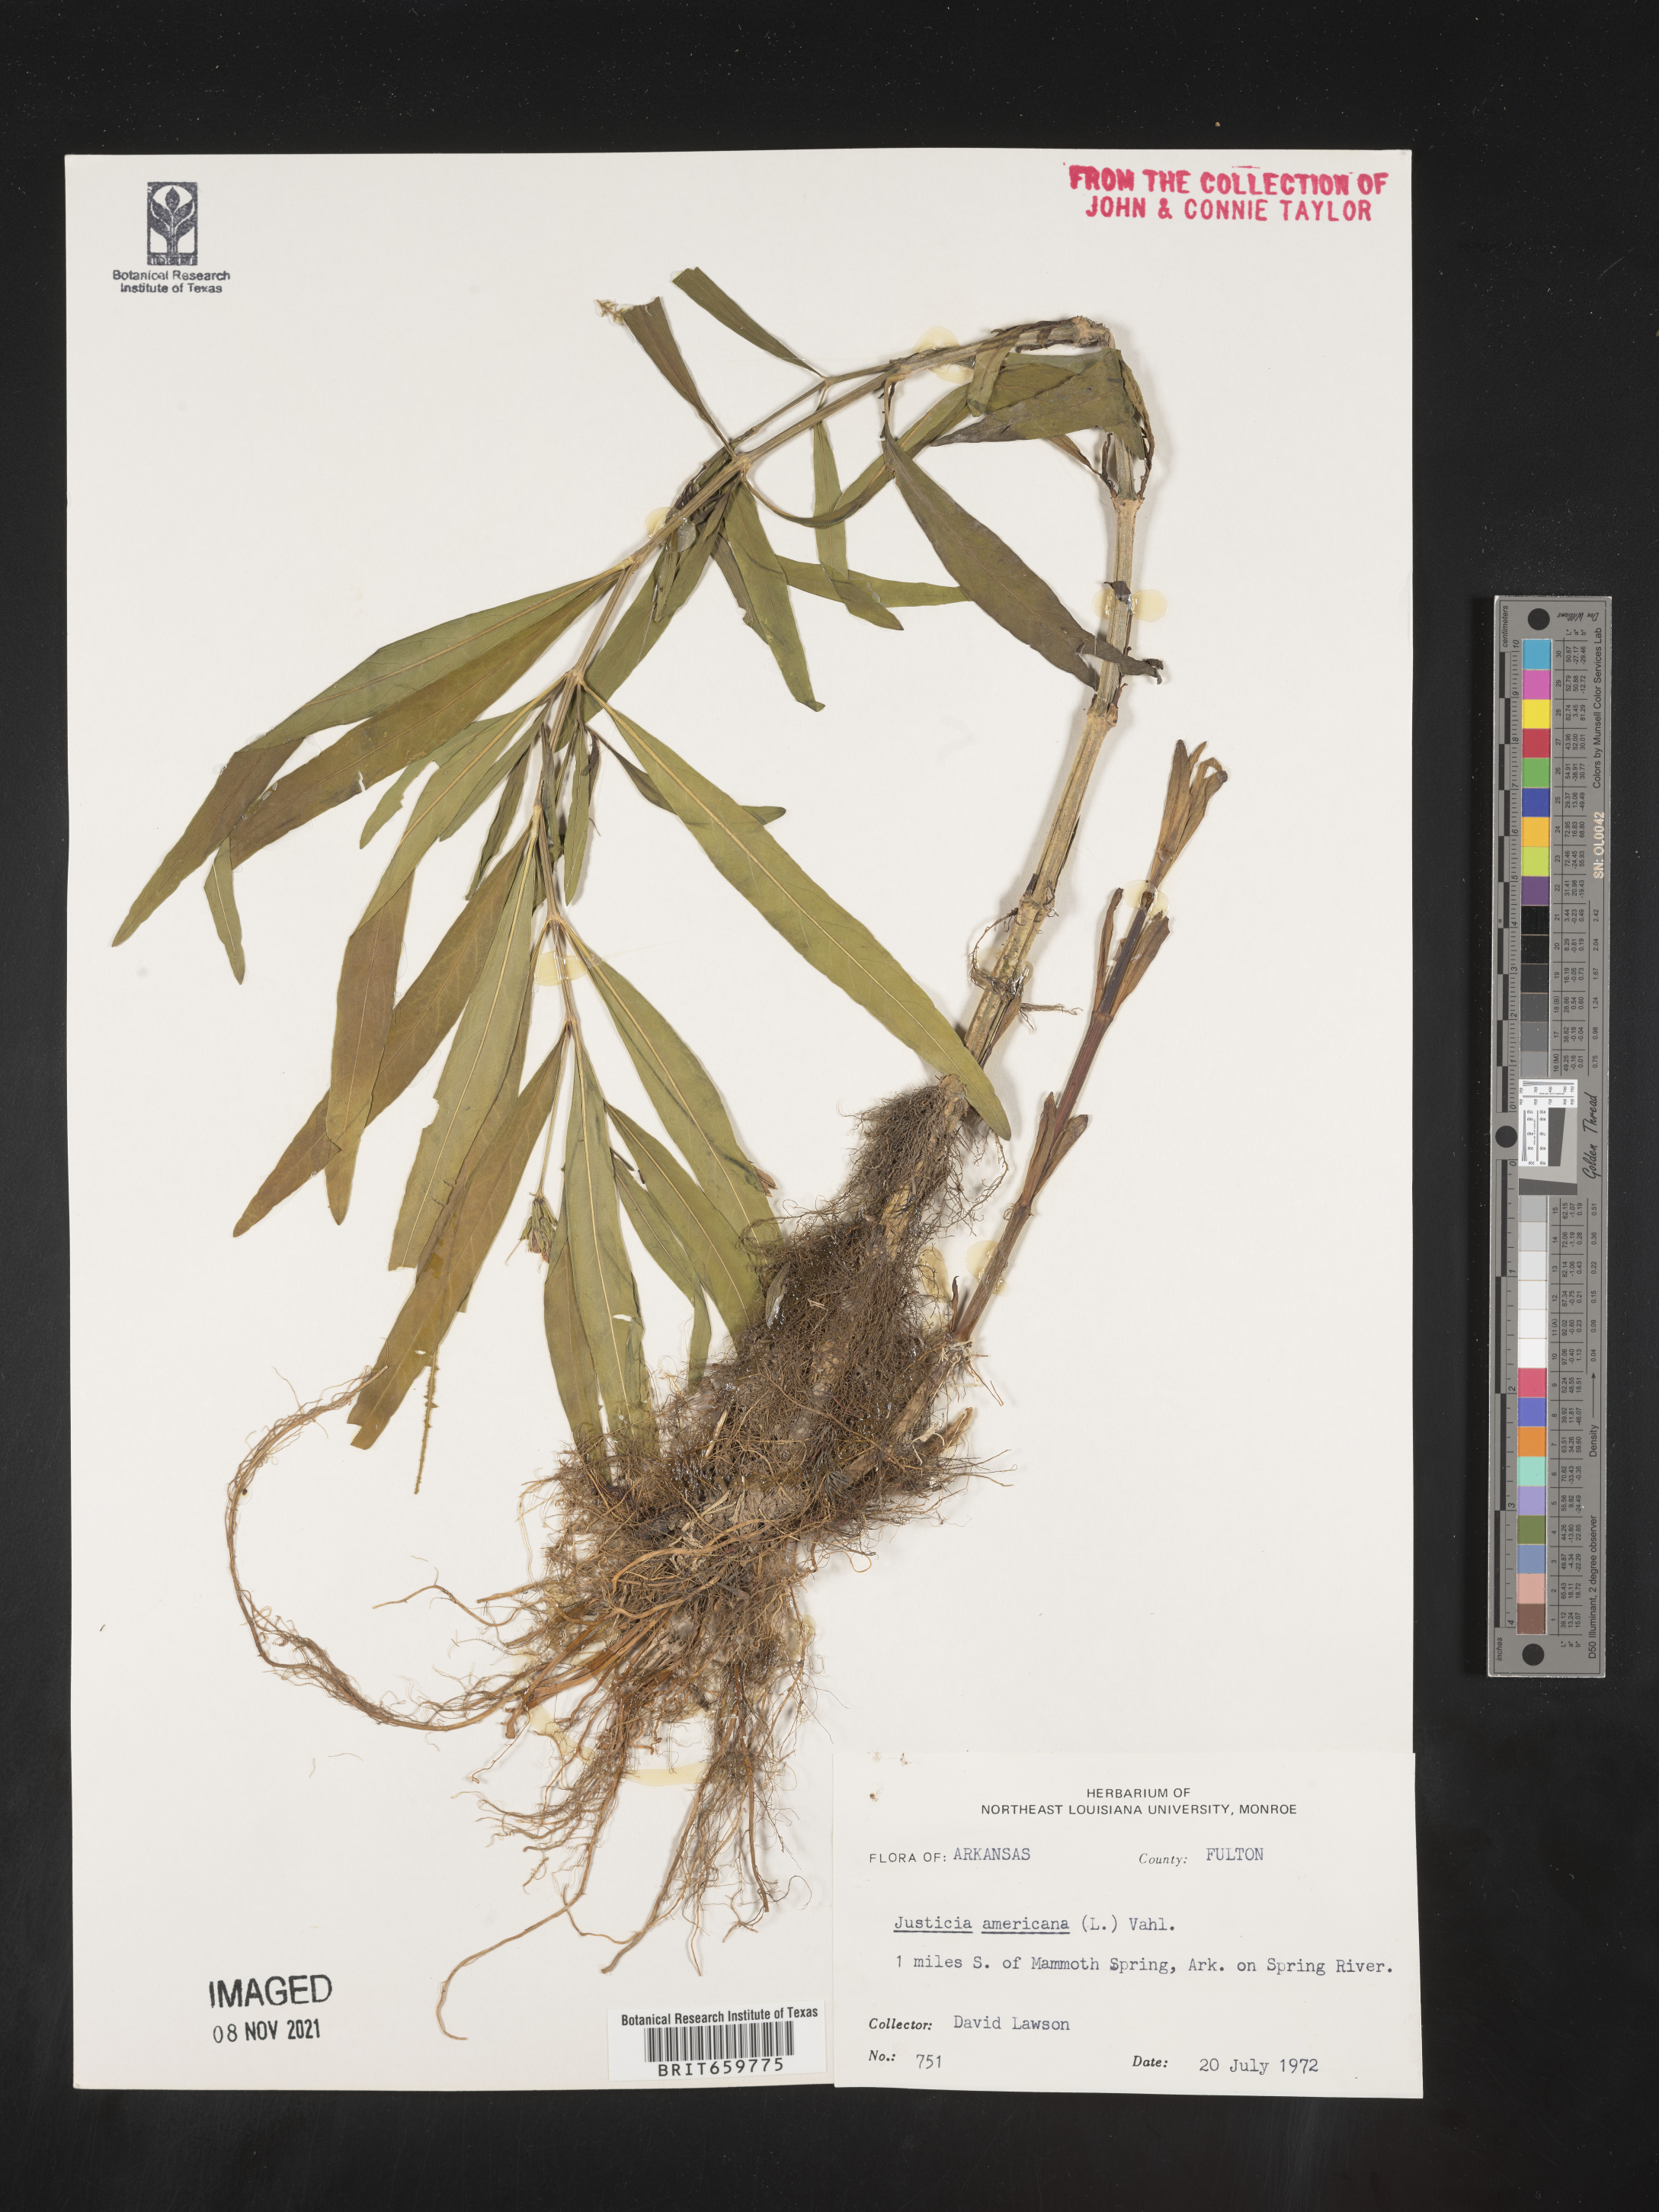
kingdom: Plantae
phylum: Tracheophyta
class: Magnoliopsida
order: Lamiales
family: Acanthaceae
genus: Dianthera
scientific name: Dianthera americana
